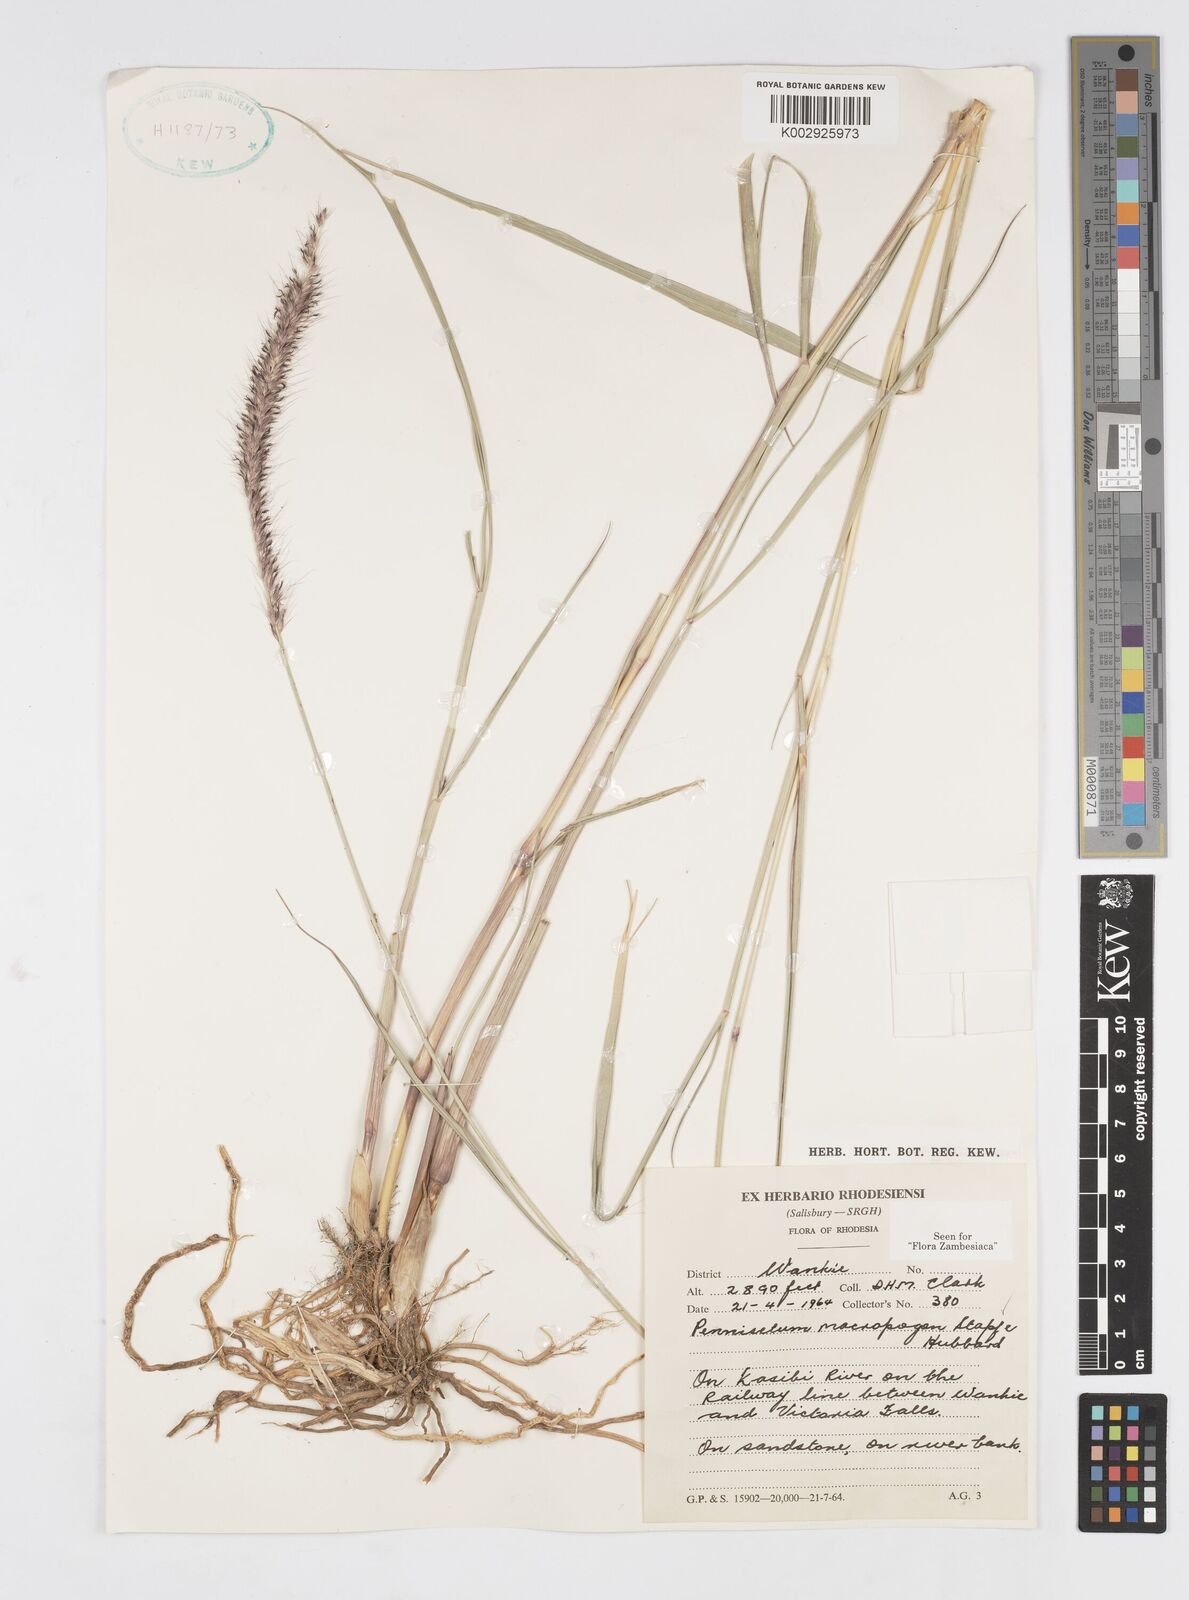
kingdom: Plantae
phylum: Tracheophyta
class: Liliopsida
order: Poales
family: Poaceae
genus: Cenchrus
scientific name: Cenchrus caudatus
